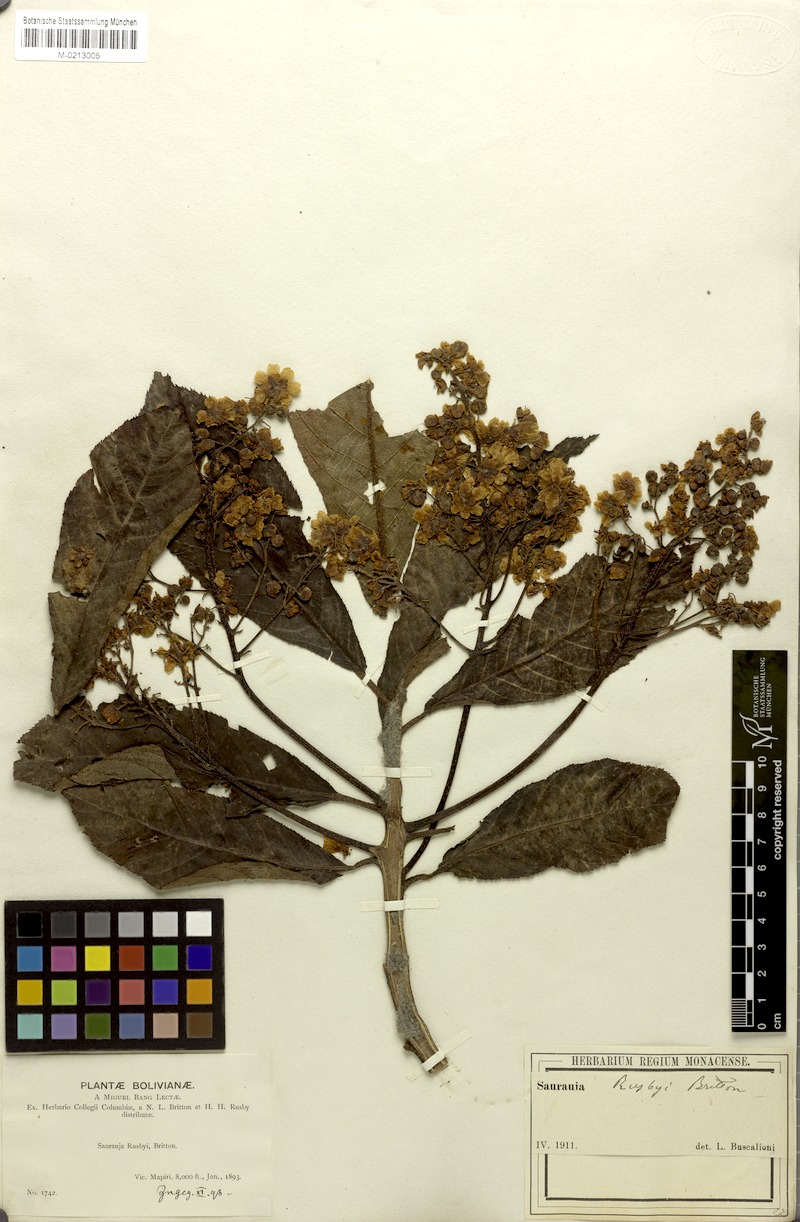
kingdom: Plantae
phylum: Tracheophyta
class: Magnoliopsida
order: Ericales
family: Actinidiaceae
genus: Saurauia
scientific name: Saurauia rusbyi
